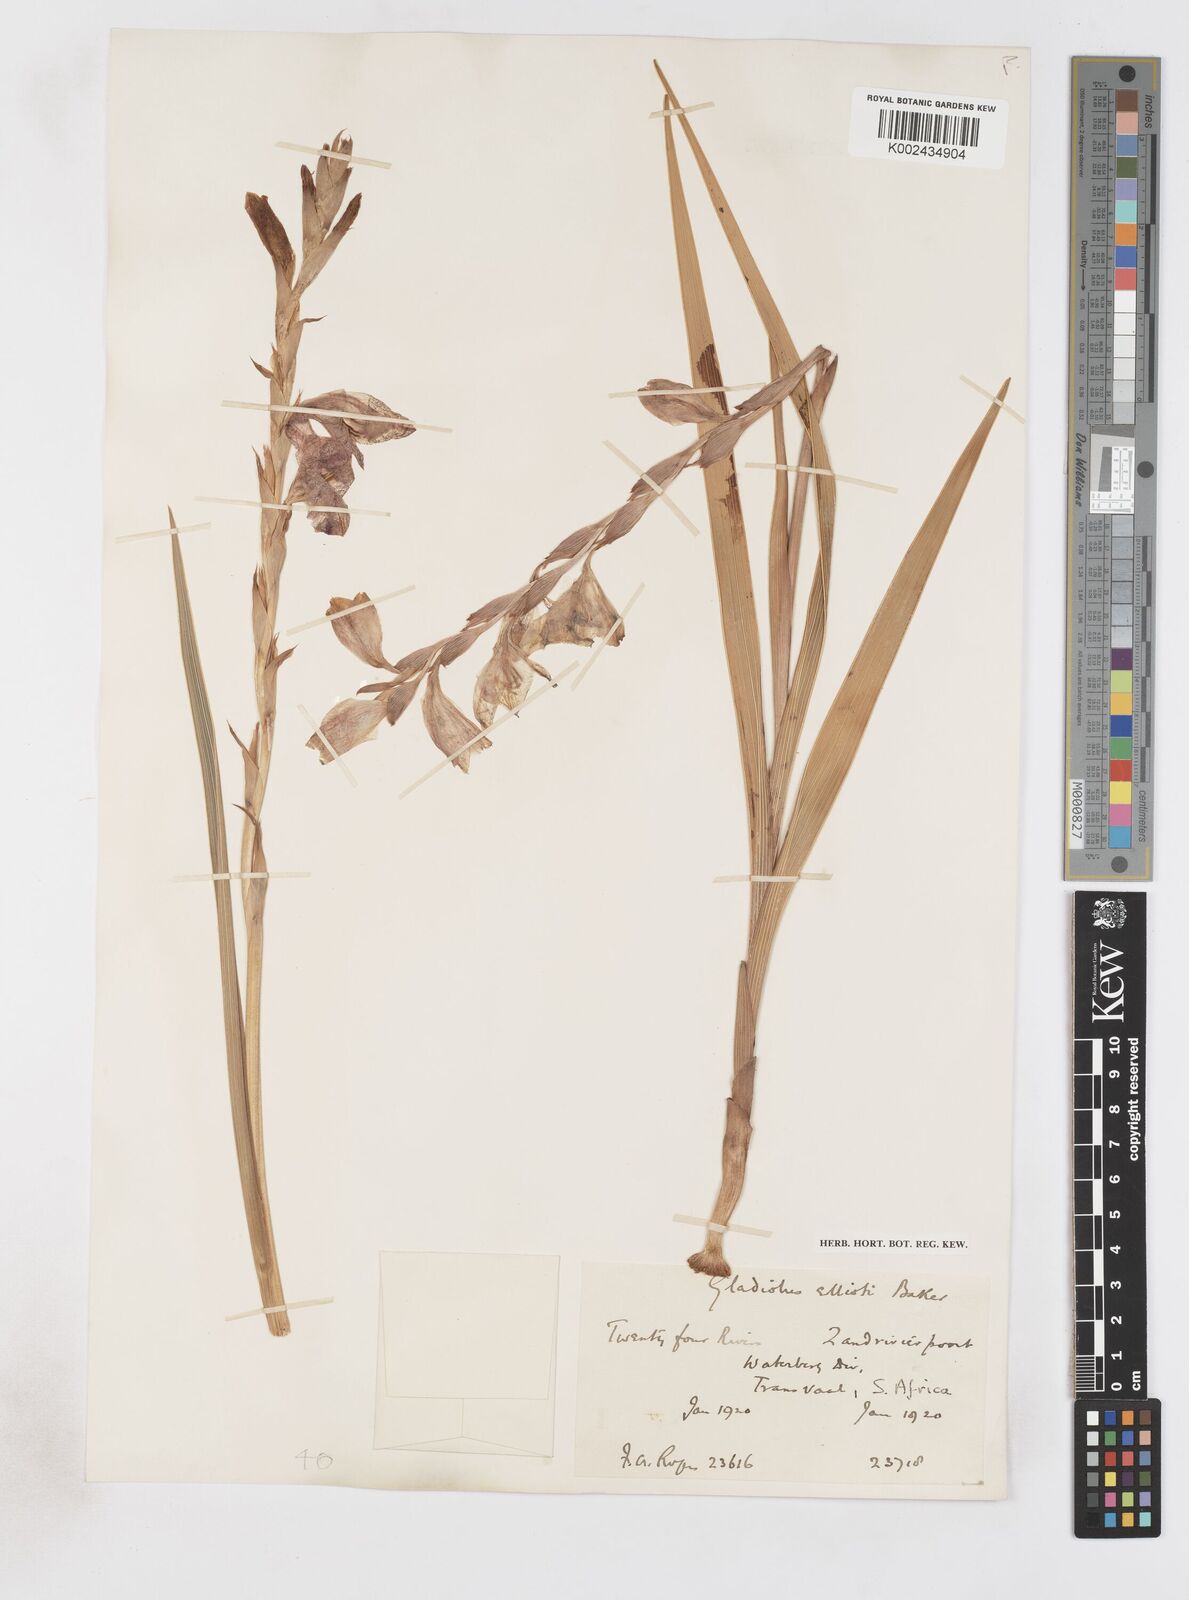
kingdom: Plantae
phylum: Tracheophyta
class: Liliopsida
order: Asparagales
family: Iridaceae
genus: Gladiolus
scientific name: Gladiolus elliotii
